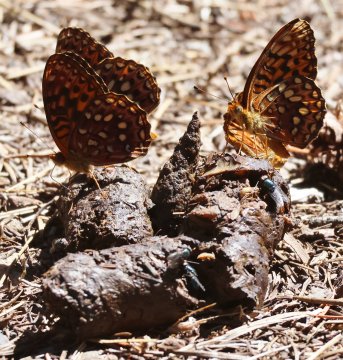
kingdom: Animalia
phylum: Arthropoda
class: Insecta
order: Lepidoptera
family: Nymphalidae
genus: Speyeria
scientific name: Speyeria zerene
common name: Zerene Fritillary
